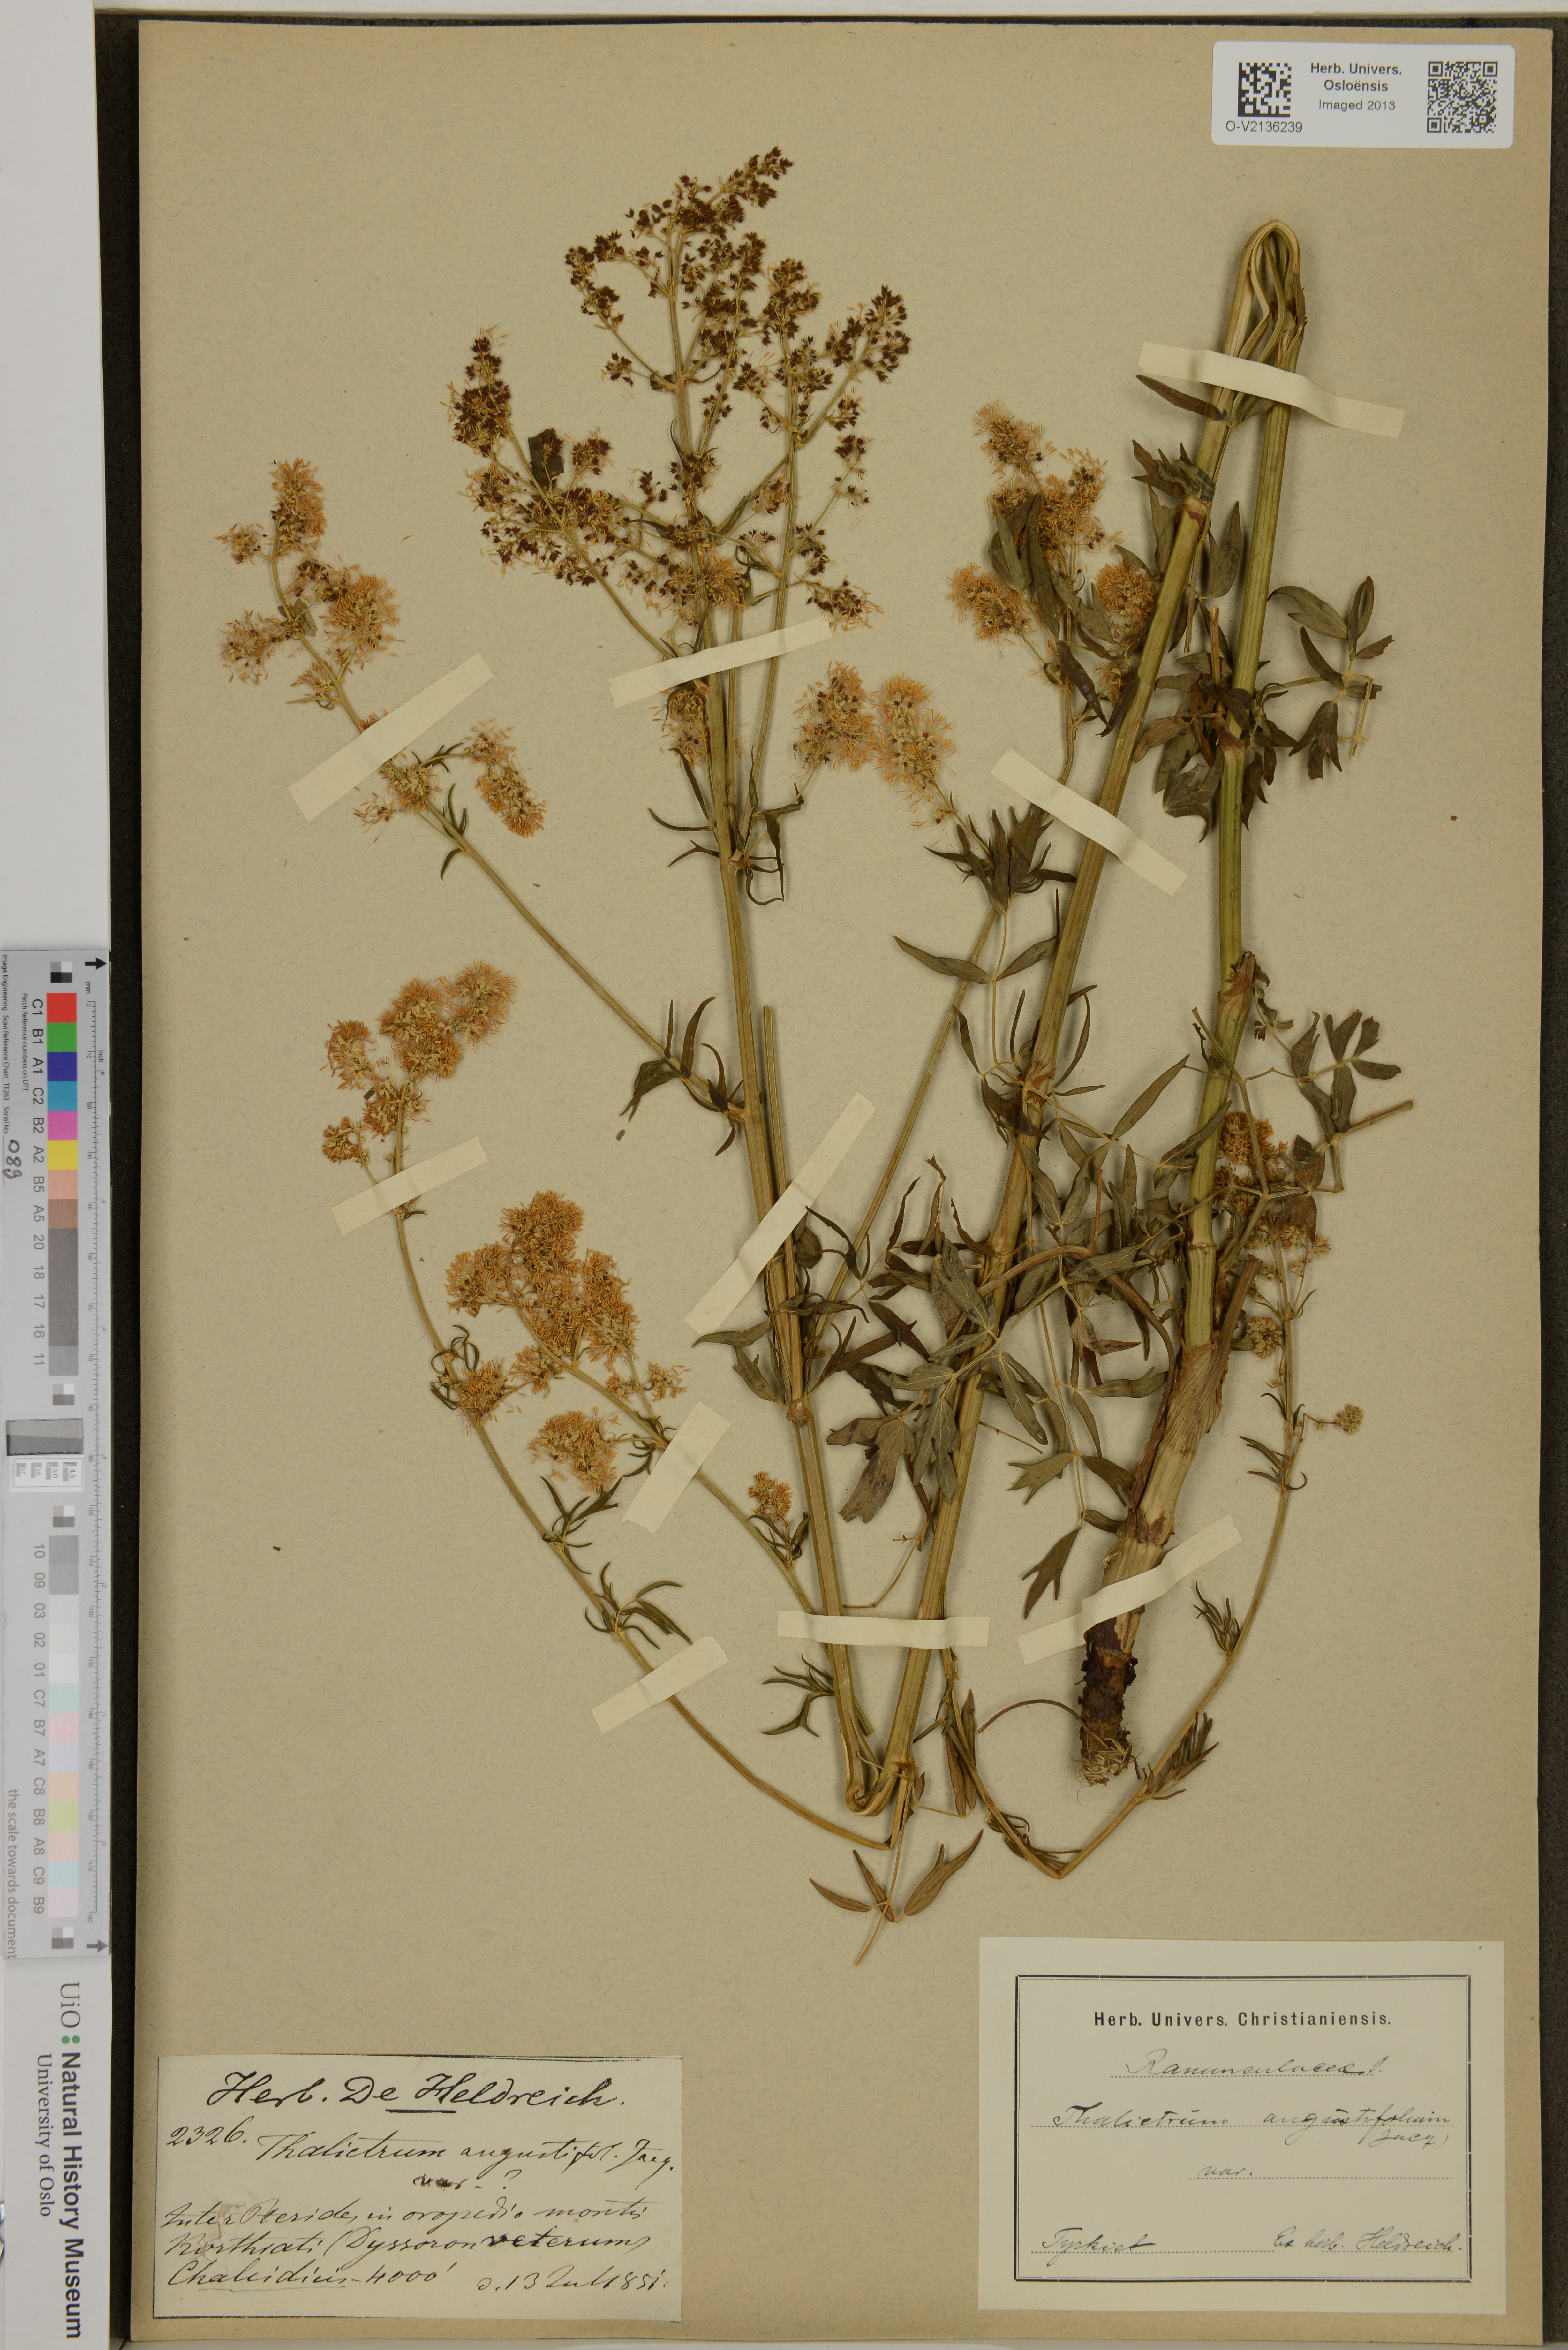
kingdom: Plantae
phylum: Tracheophyta
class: Magnoliopsida
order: Ranunculales
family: Ranunculaceae
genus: Thalictrum
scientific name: Thalictrum lucidum
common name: Shining meadow-rue
